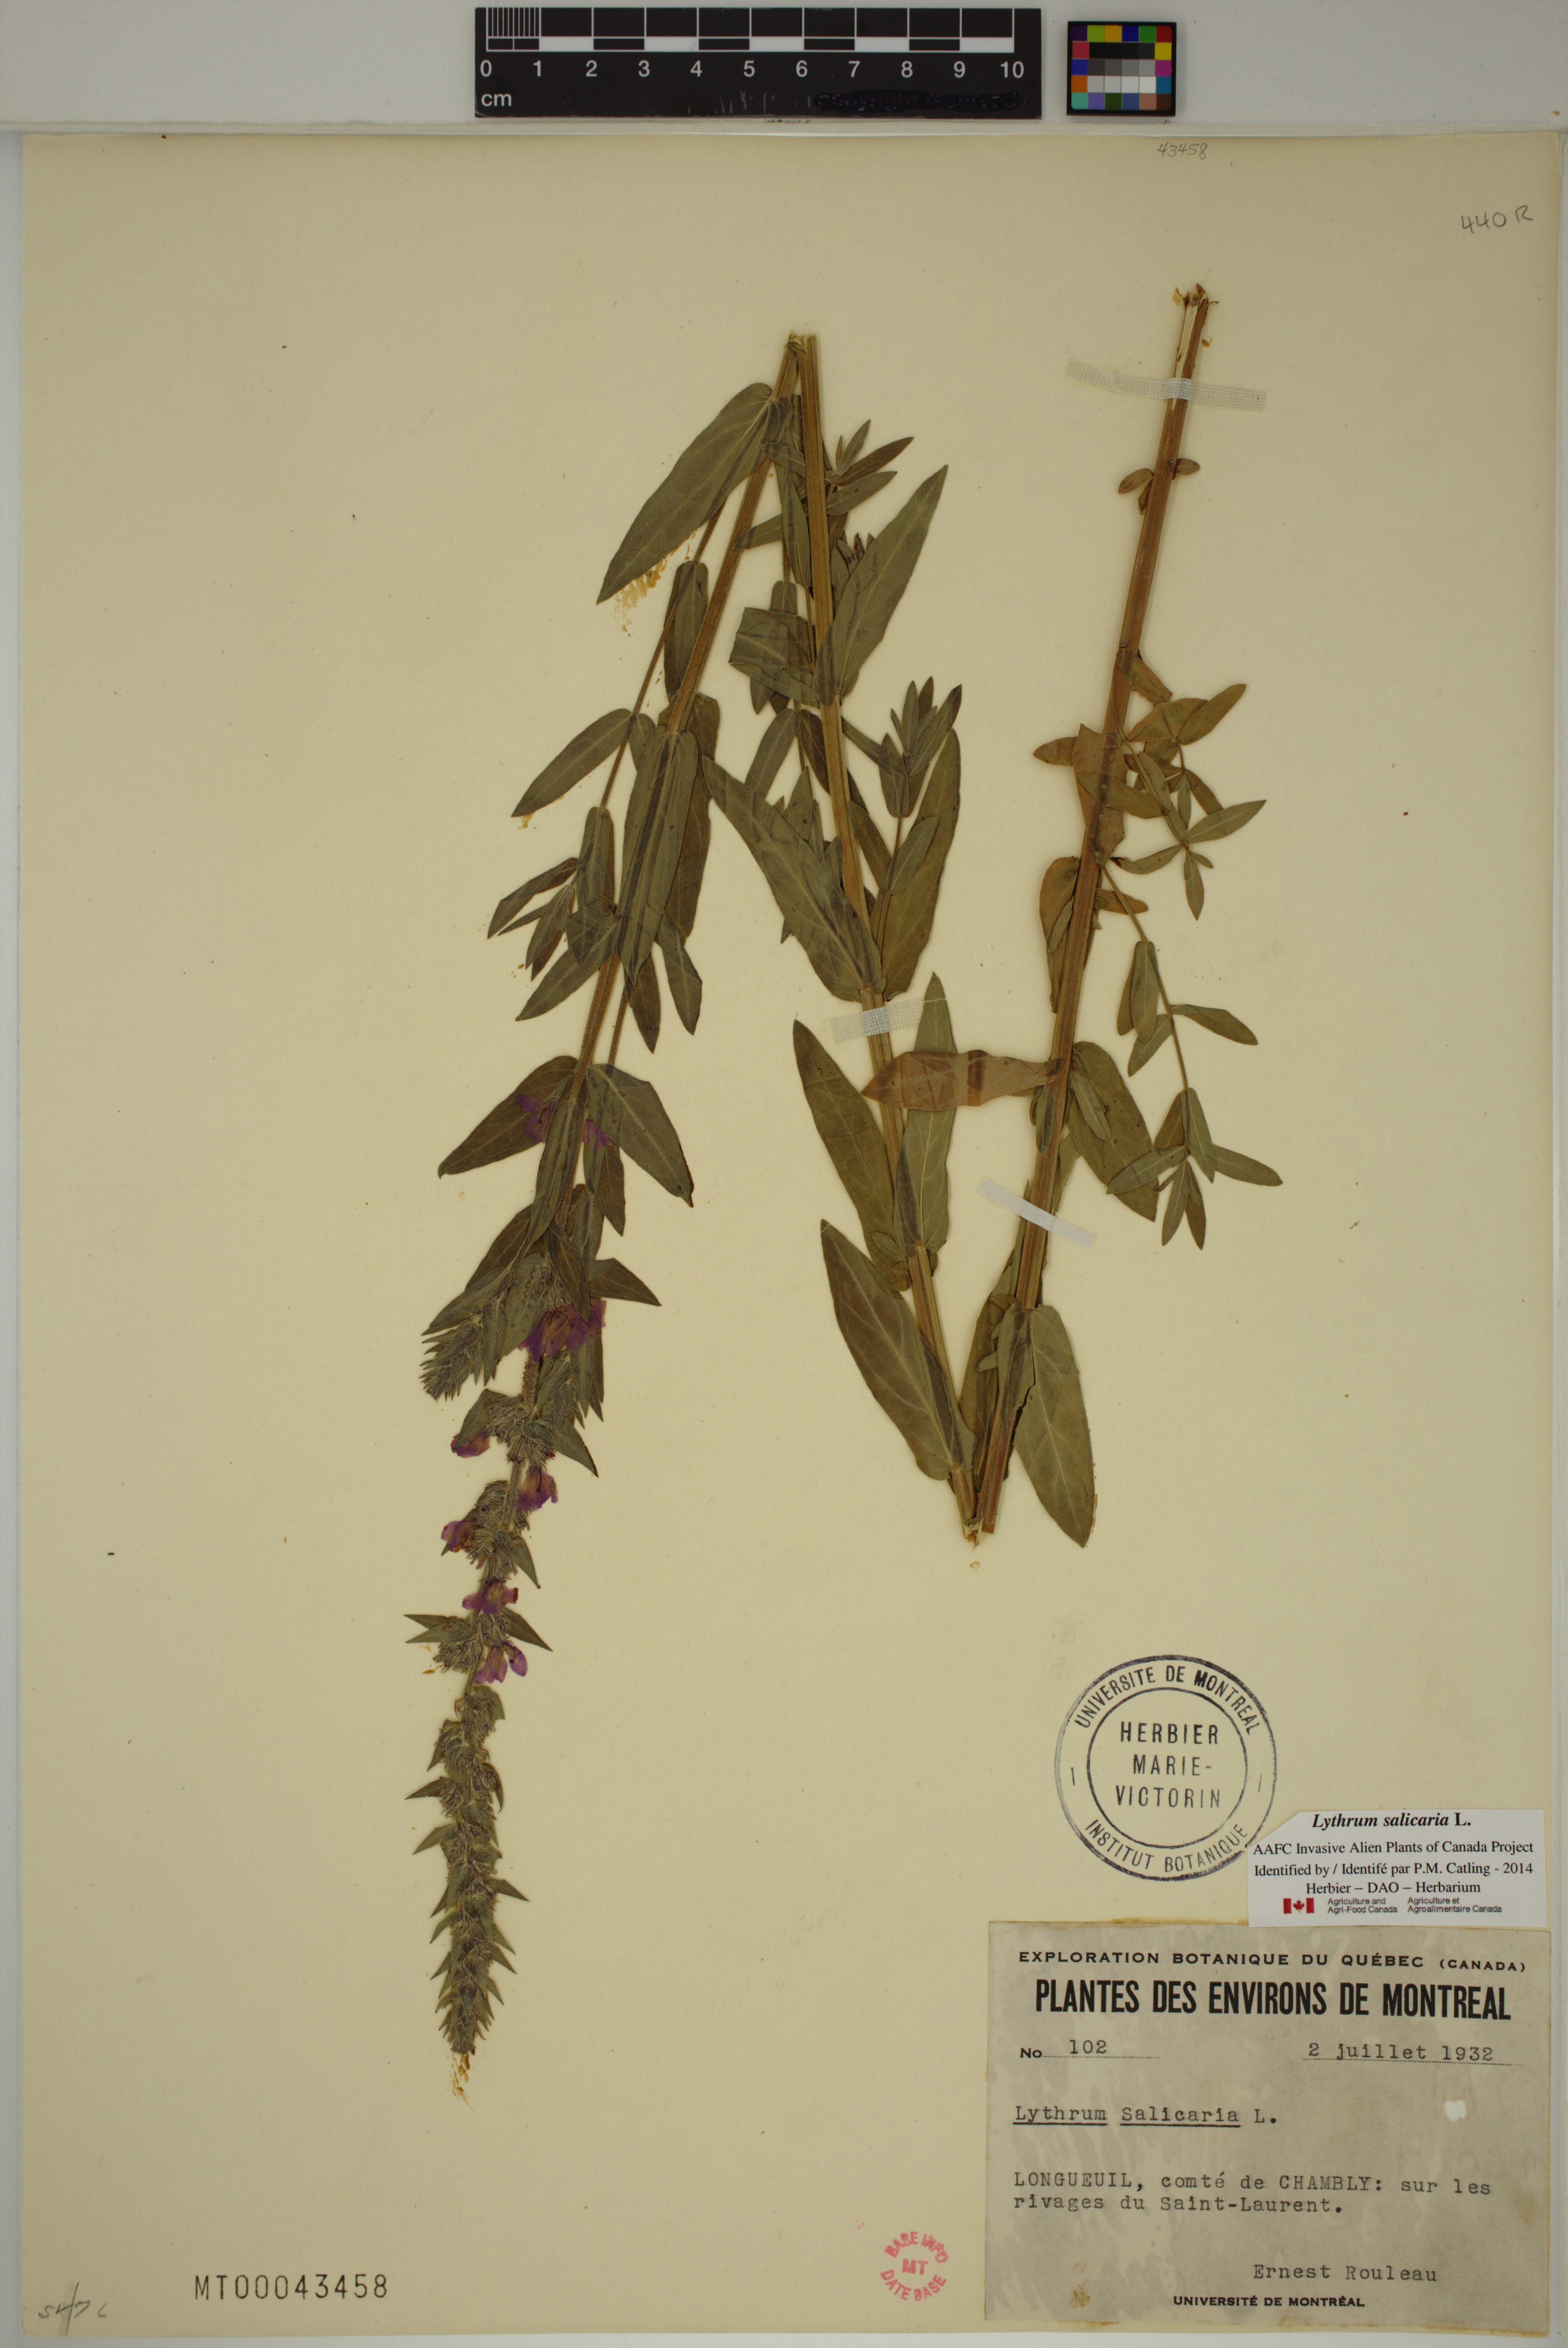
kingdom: Plantae
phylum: Tracheophyta
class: Magnoliopsida
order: Myrtales
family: Lythraceae
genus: Lythrum
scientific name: Lythrum salicaria
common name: Purple loosestrife
